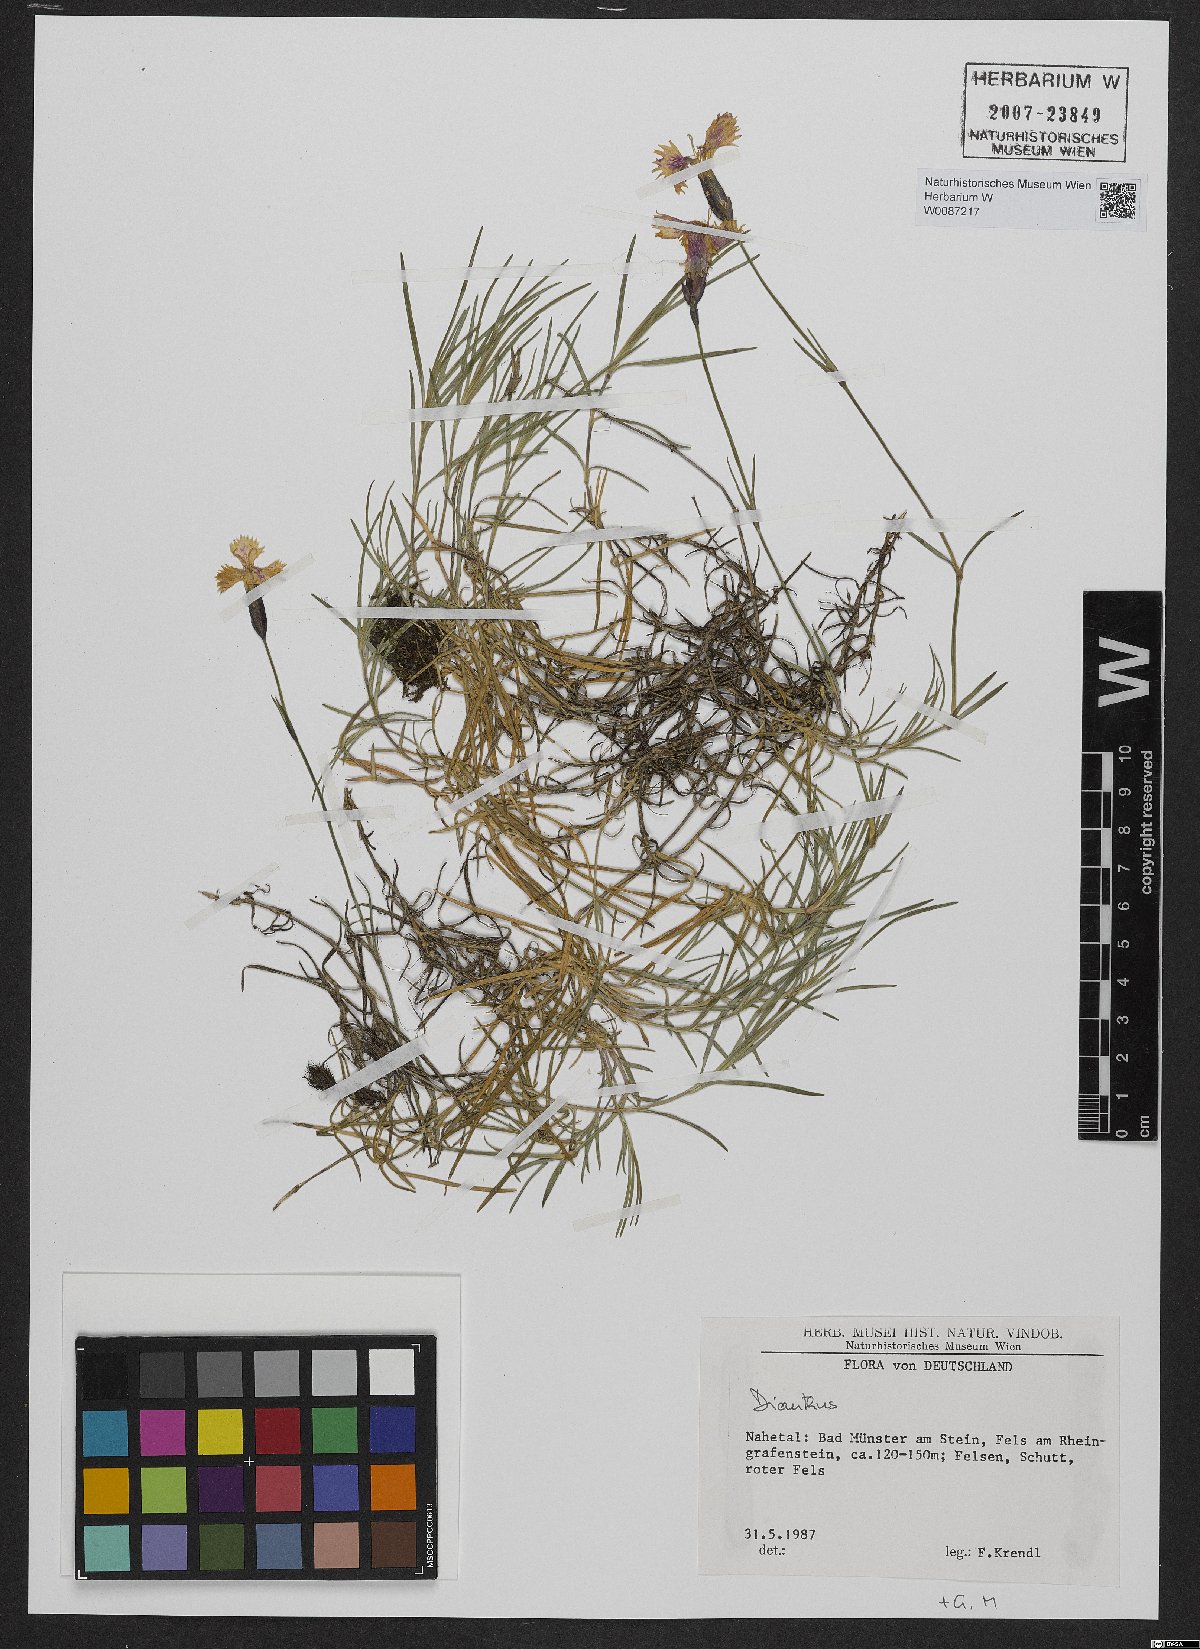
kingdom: Plantae
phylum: Tracheophyta
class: Magnoliopsida
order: Caryophyllales
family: Caryophyllaceae
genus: Dianthus
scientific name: Dianthus gratianopolitanus
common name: Cheddar pink
